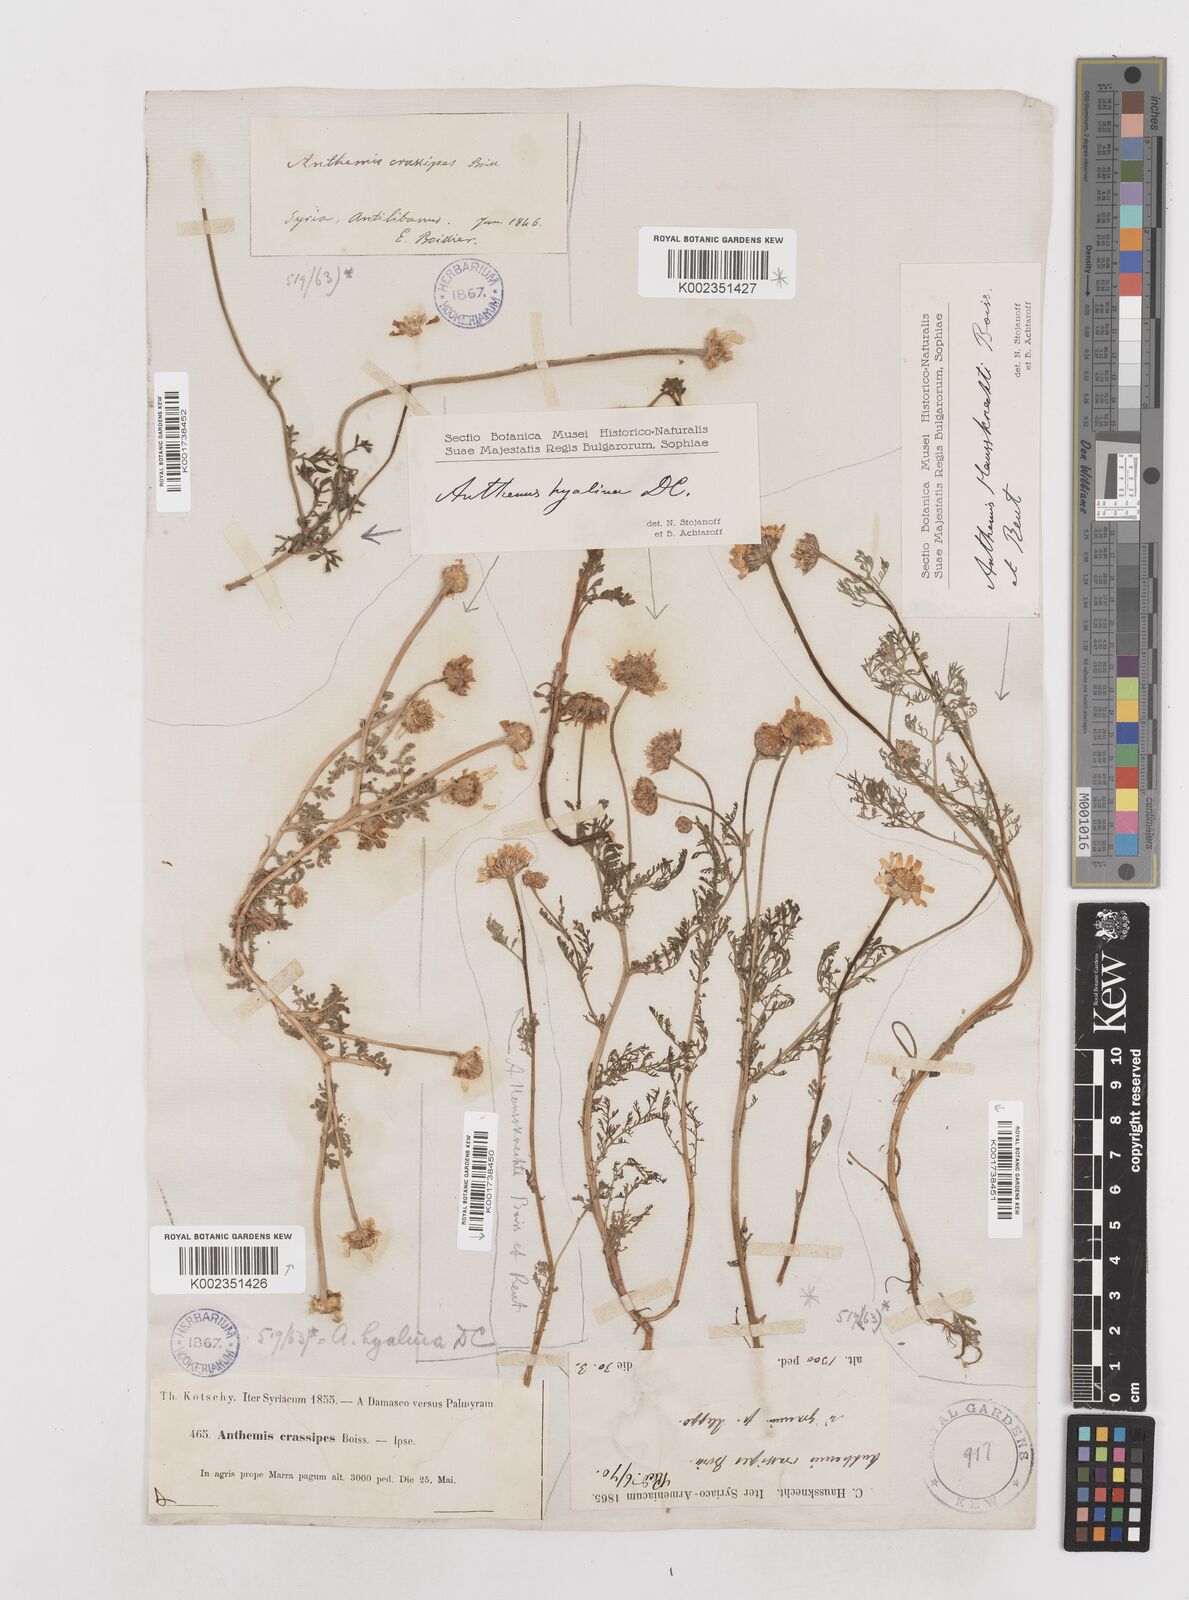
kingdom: Plantae
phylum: Tracheophyta
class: Magnoliopsida
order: Asterales
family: Asteraceae
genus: Anthemis
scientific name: Anthemis hyalina
